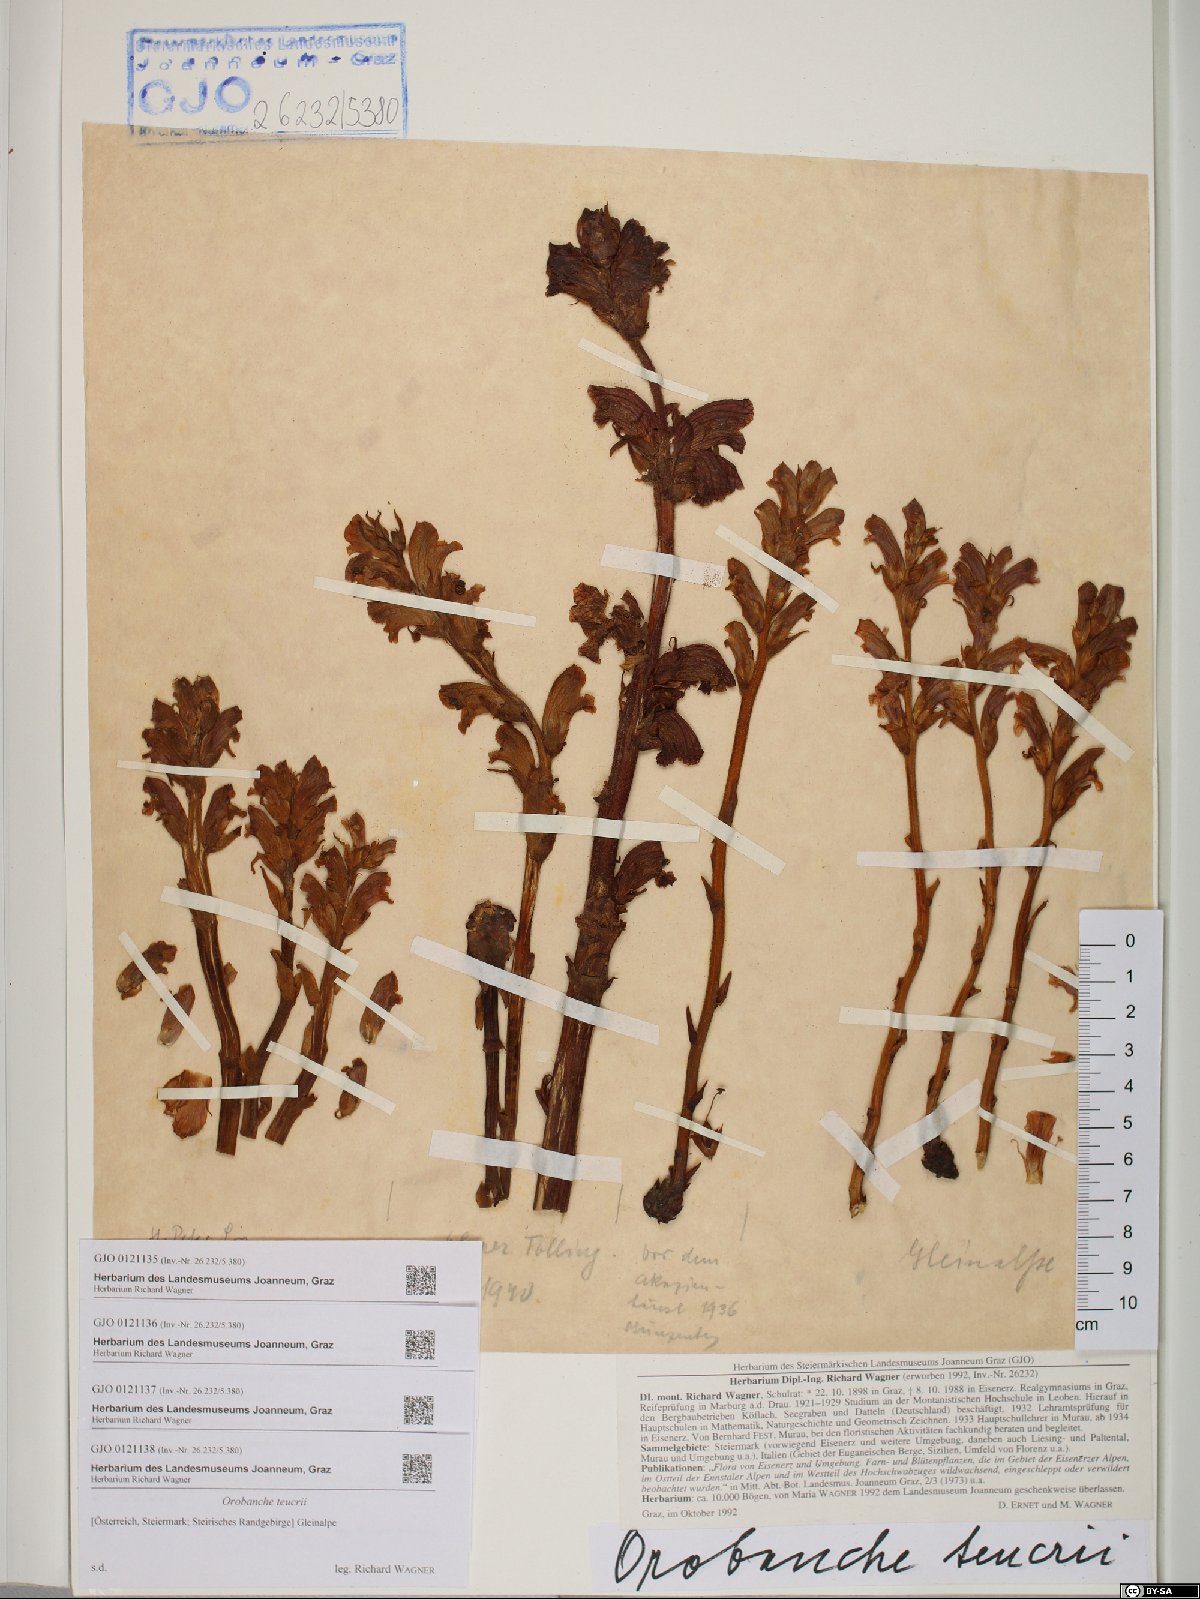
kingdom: Plantae
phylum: Tracheophyta
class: Magnoliopsida
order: Lamiales
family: Orobanchaceae
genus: Orobanche
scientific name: Orobanche teucrii
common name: Germander broomrape
